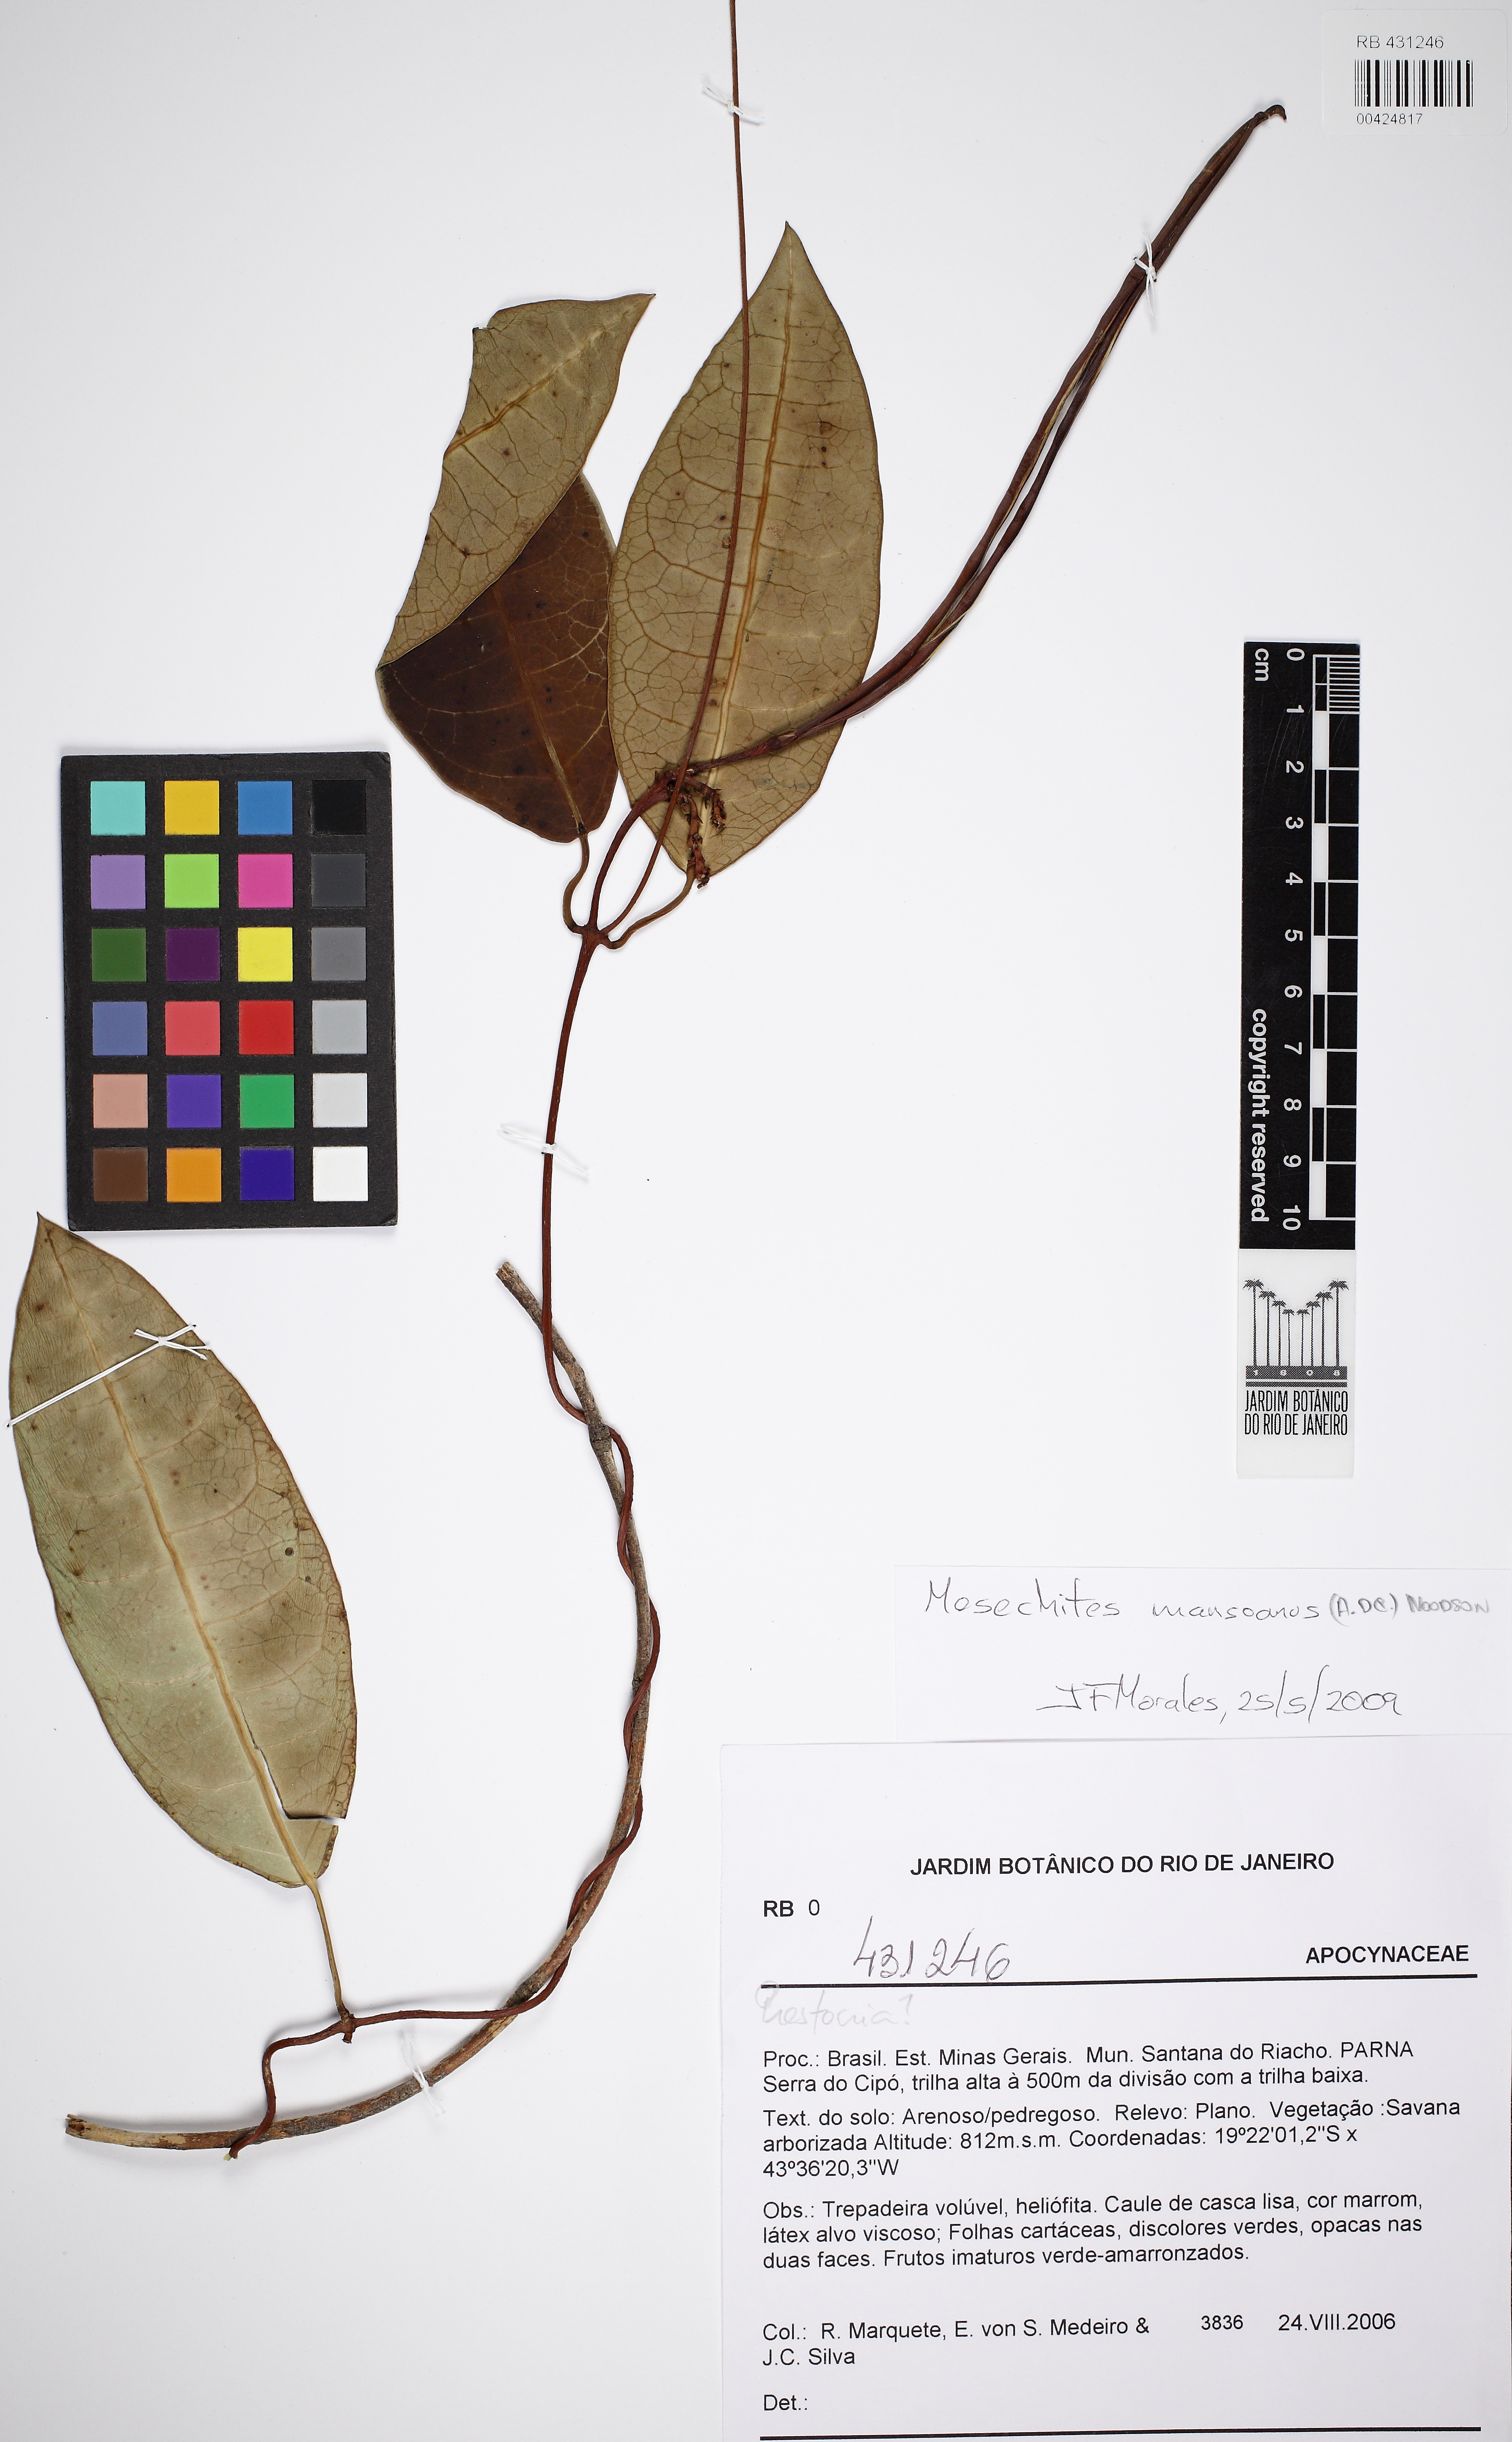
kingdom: Plantae
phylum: Tracheophyta
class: Magnoliopsida
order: Gentianales
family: Apocynaceae
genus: Mesechites
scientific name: Mesechites mansoanus
